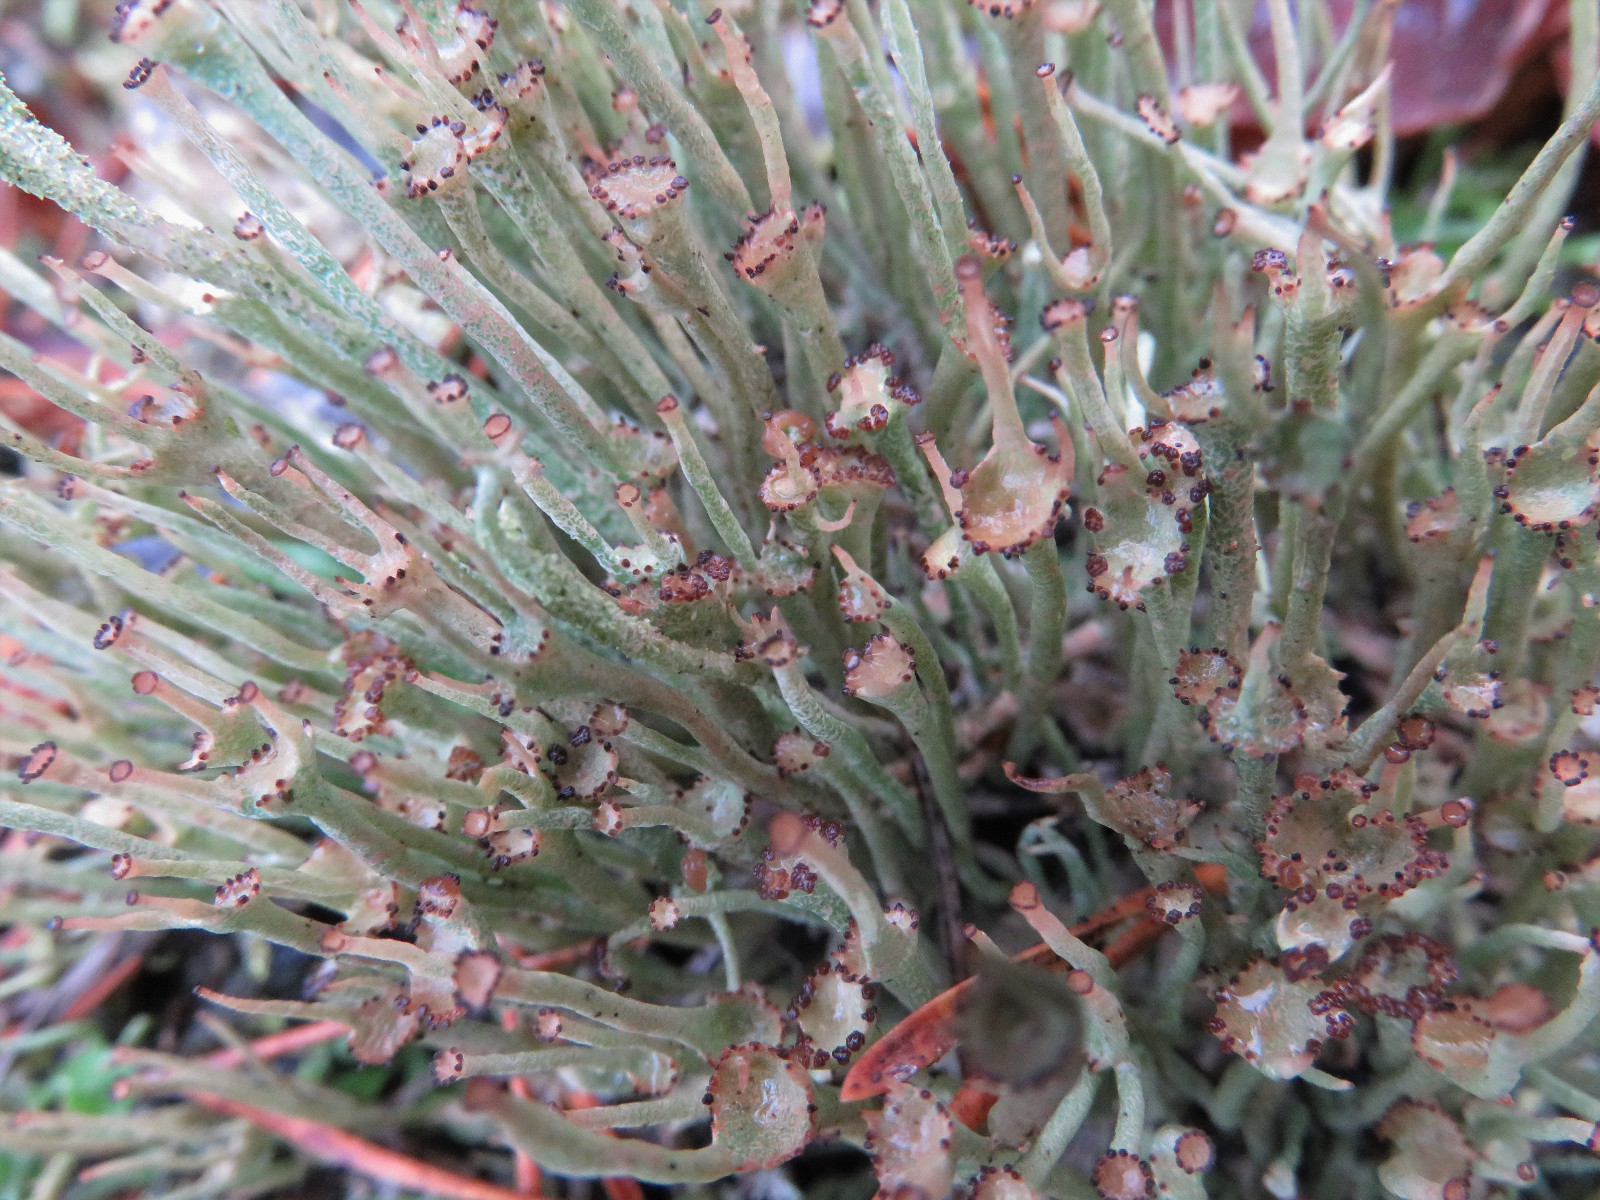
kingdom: Fungi
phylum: Ascomycota
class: Lecanoromycetes
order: Lecanorales
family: Cladoniaceae
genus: Cladonia
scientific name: Cladonia gracilis
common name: slank bægerlav
